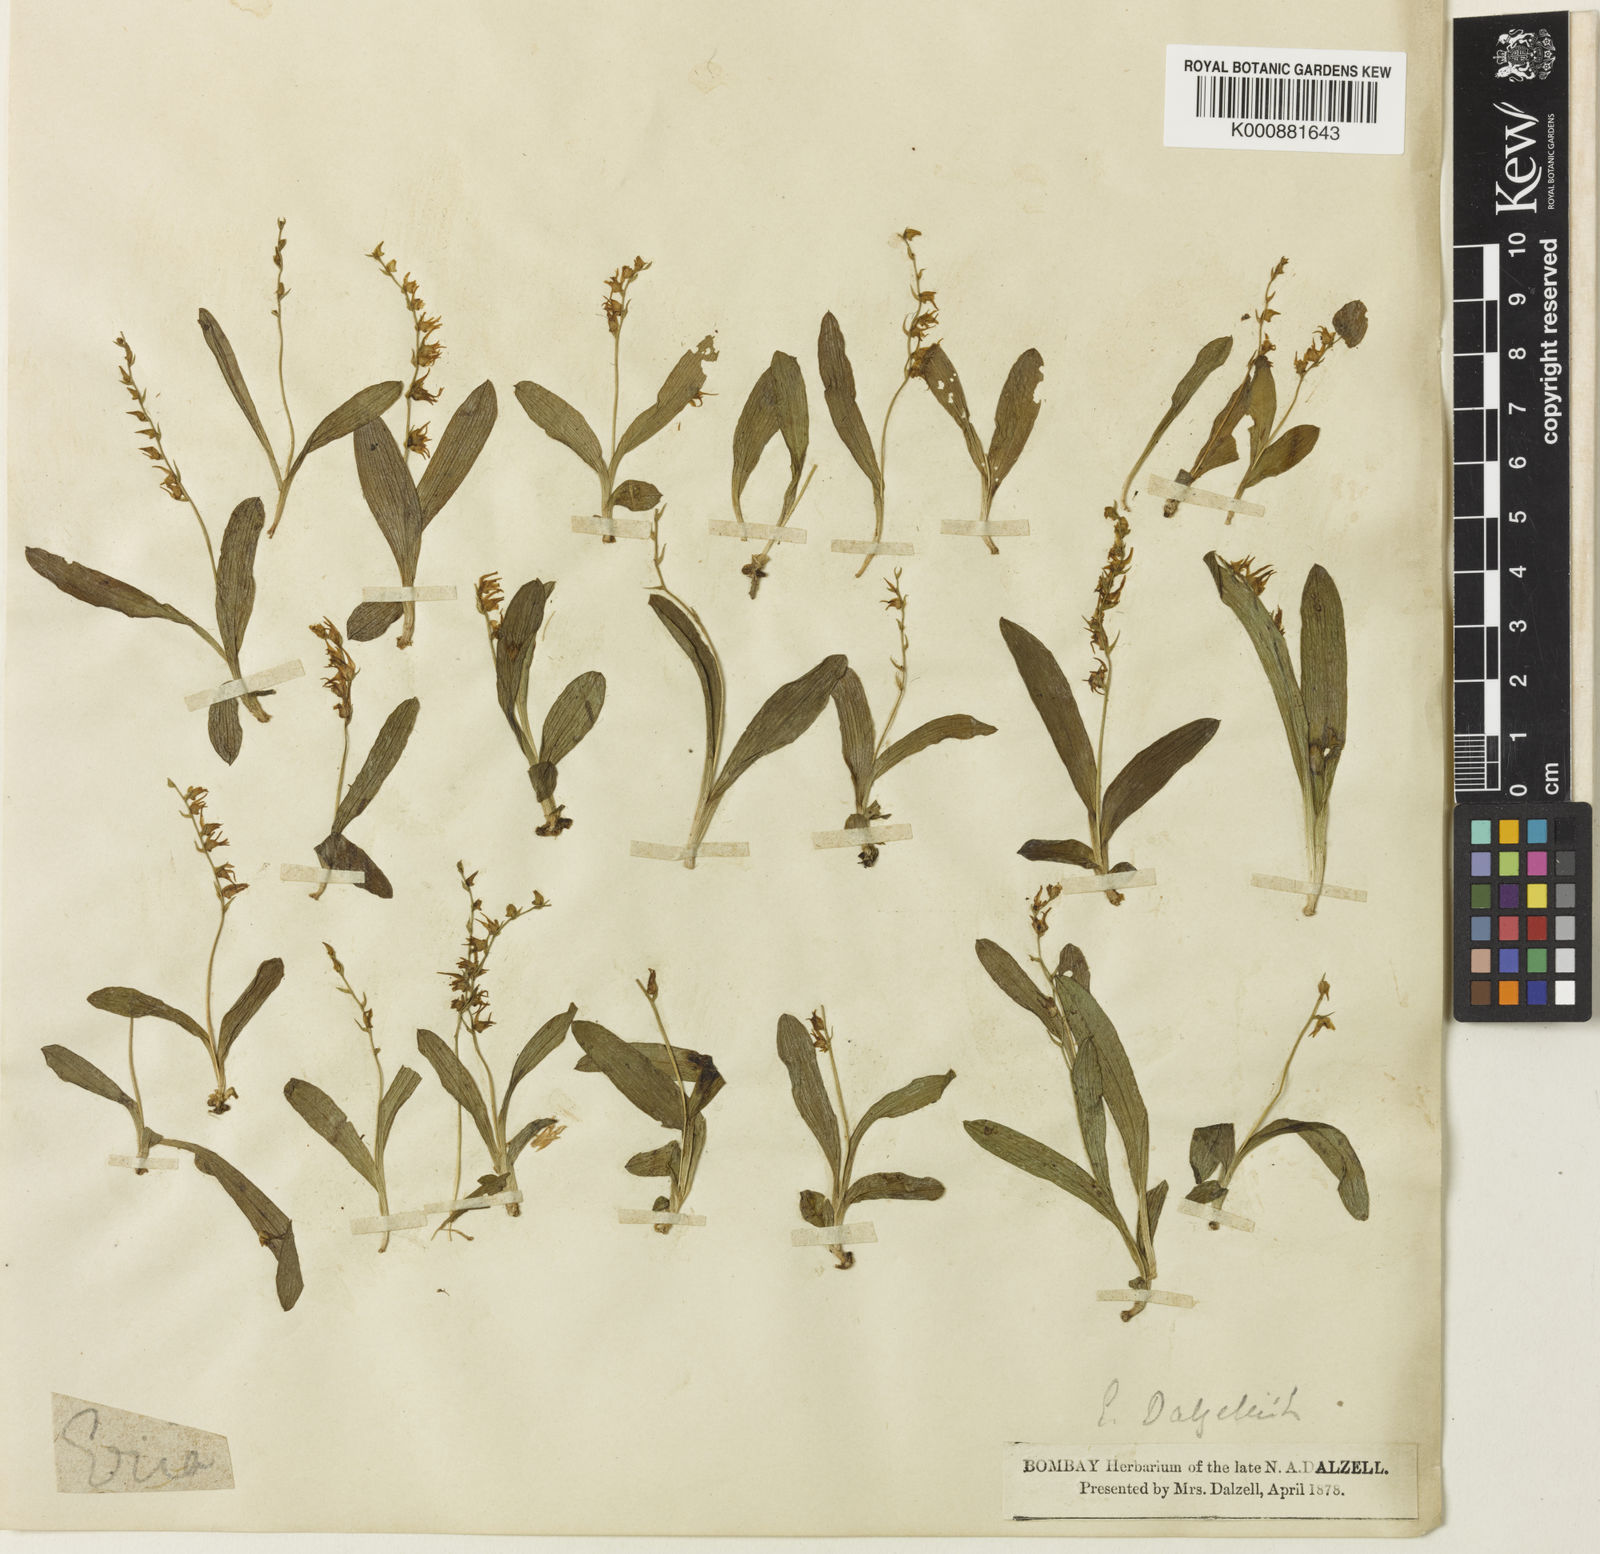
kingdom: Plantae
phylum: Tracheophyta
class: Liliopsida
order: Asparagales
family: Orchidaceae
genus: Porpax
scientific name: Porpax filiformis
